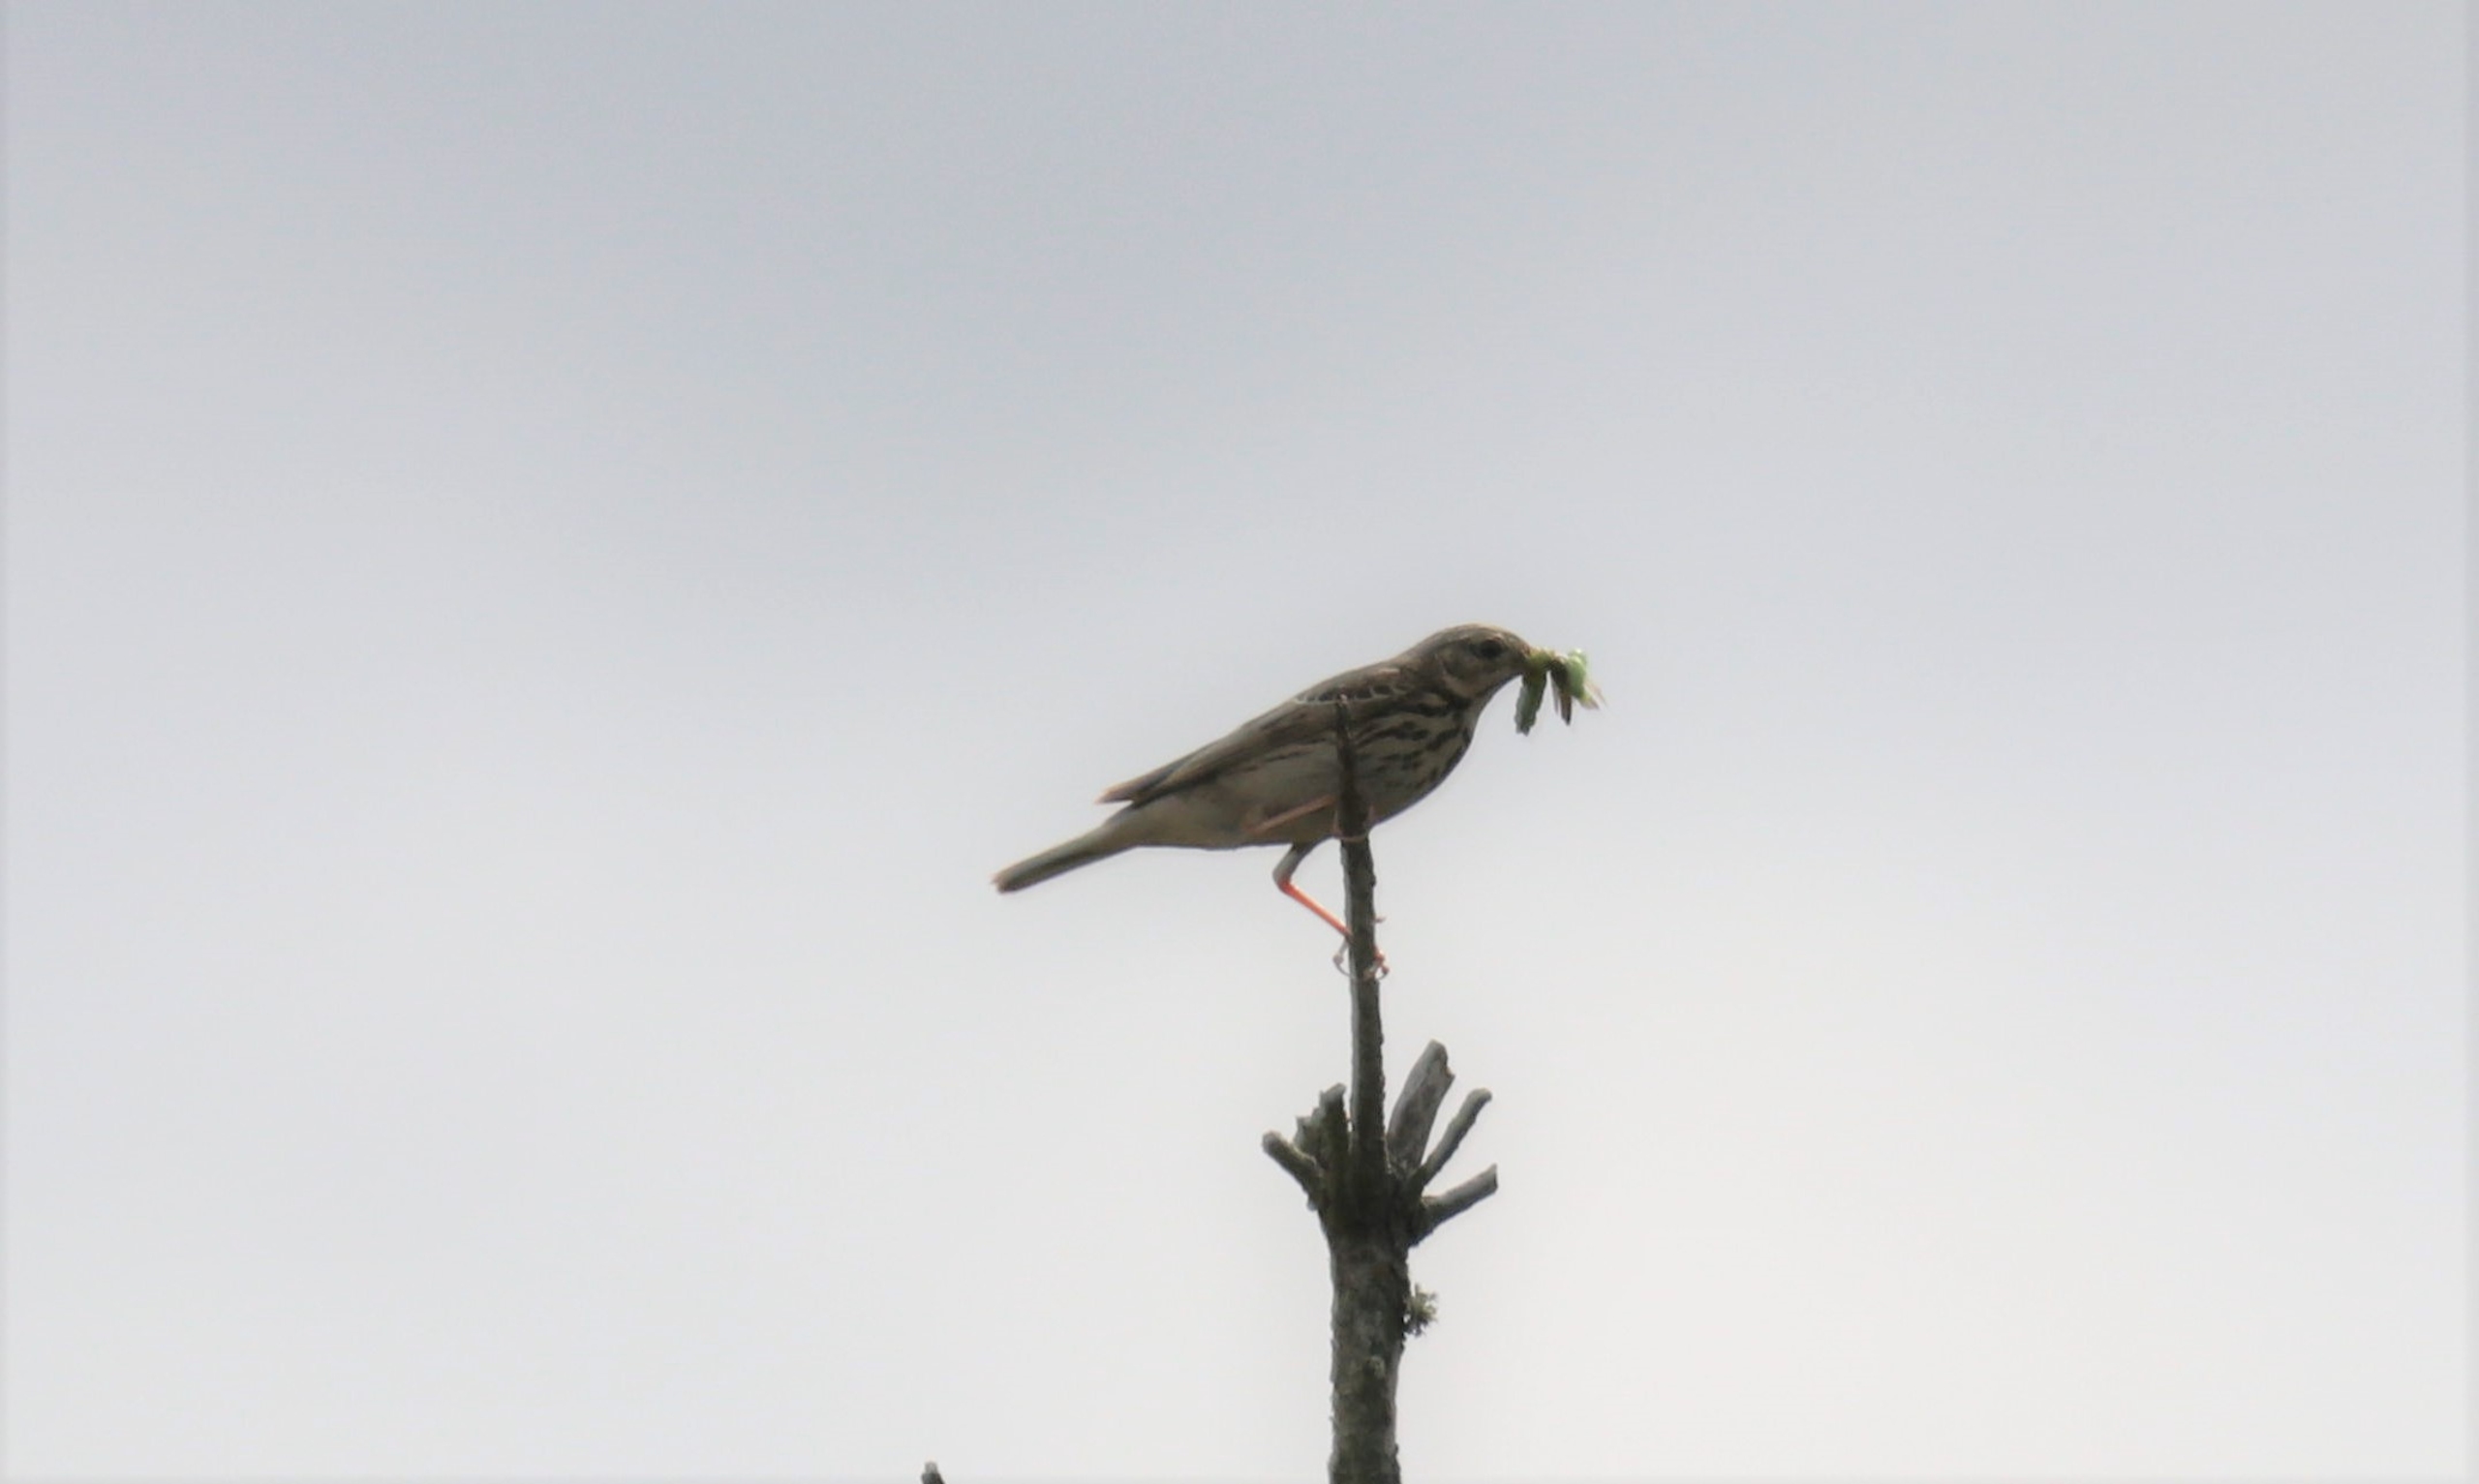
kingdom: Animalia
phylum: Chordata
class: Aves
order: Passeriformes
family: Motacillidae
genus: Anthus
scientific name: Anthus trivialis
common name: Skovpiber
